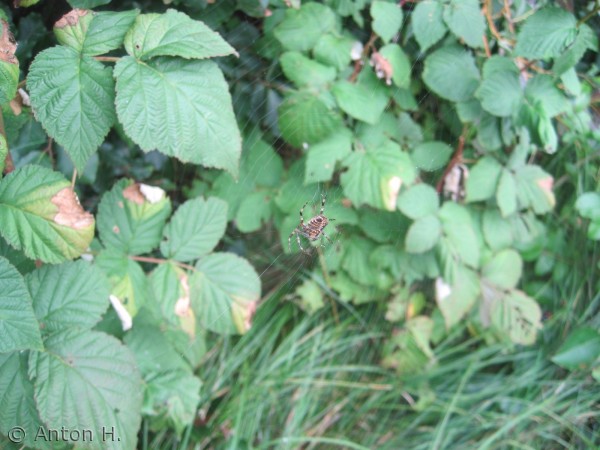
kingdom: Animalia
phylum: Arthropoda
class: Arachnida
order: Araneae
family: Araneidae
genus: Araneus
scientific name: Araneus diadematus
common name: Korsedderkop
